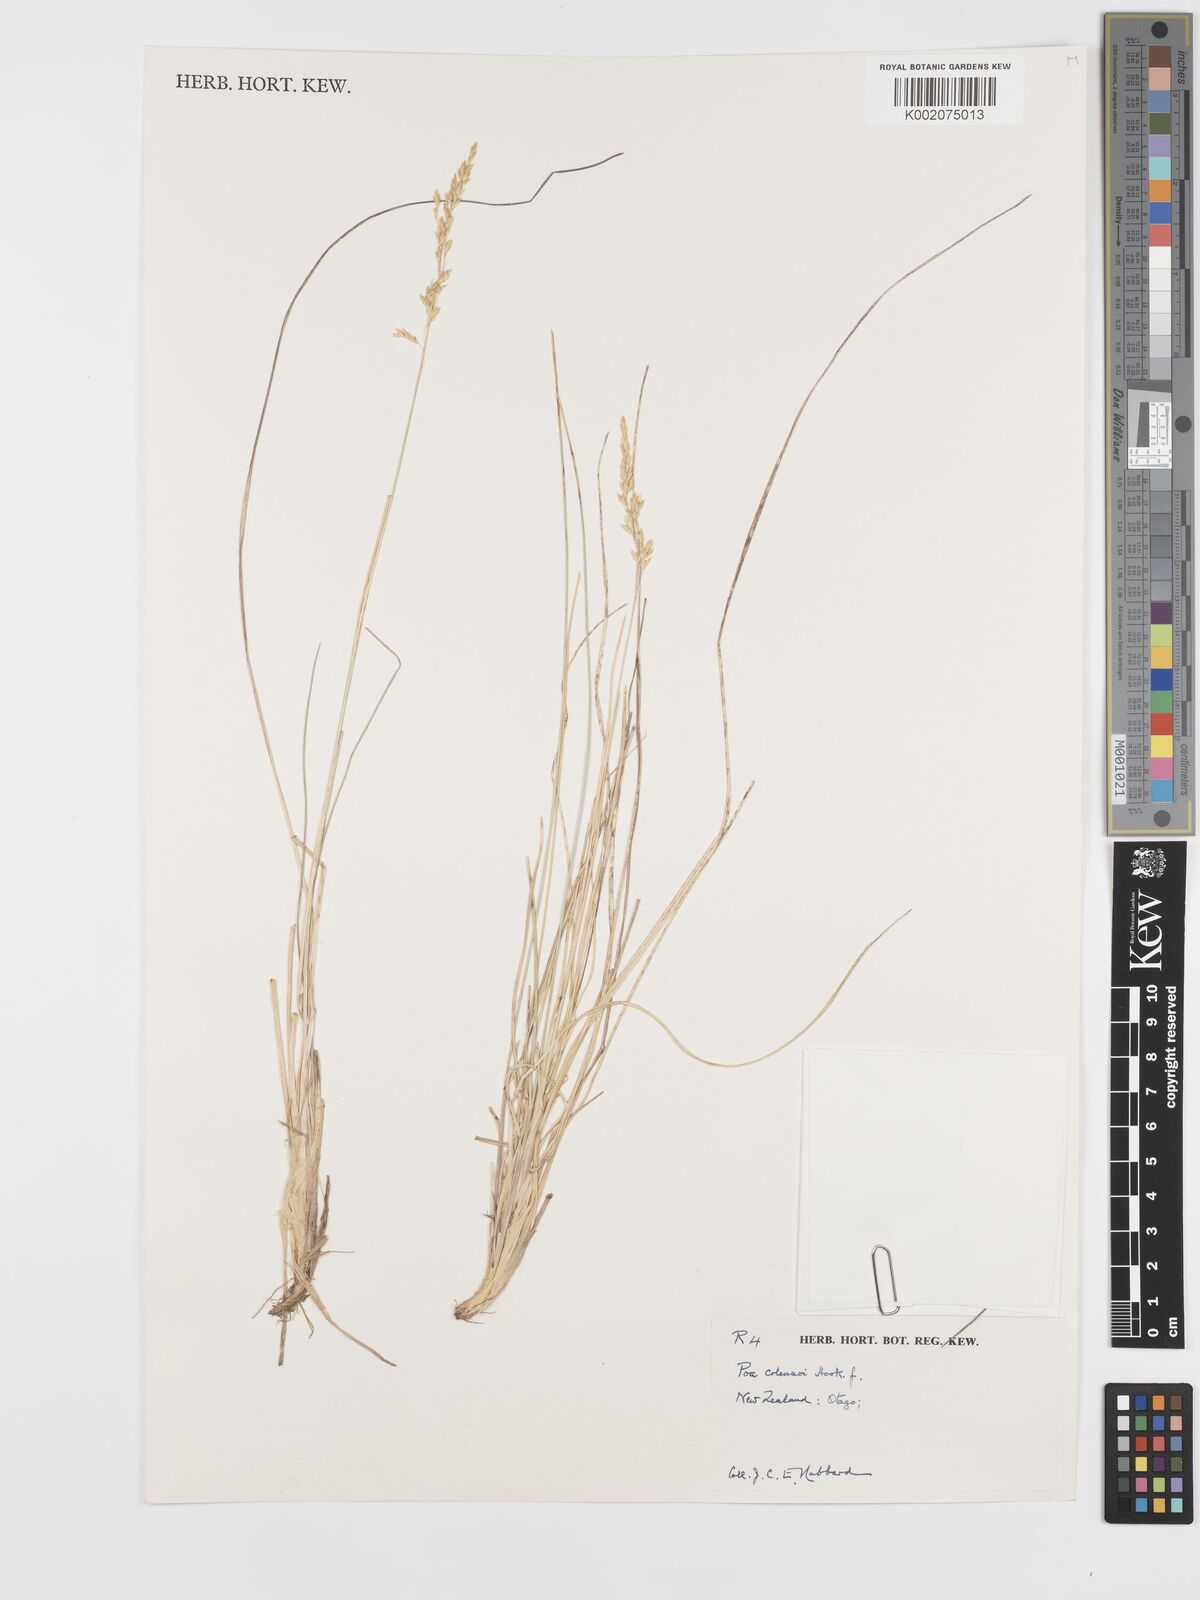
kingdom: Plantae
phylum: Tracheophyta
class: Liliopsida
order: Poales
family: Poaceae
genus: Poa
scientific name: Poa colensoi
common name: Blue tussock
